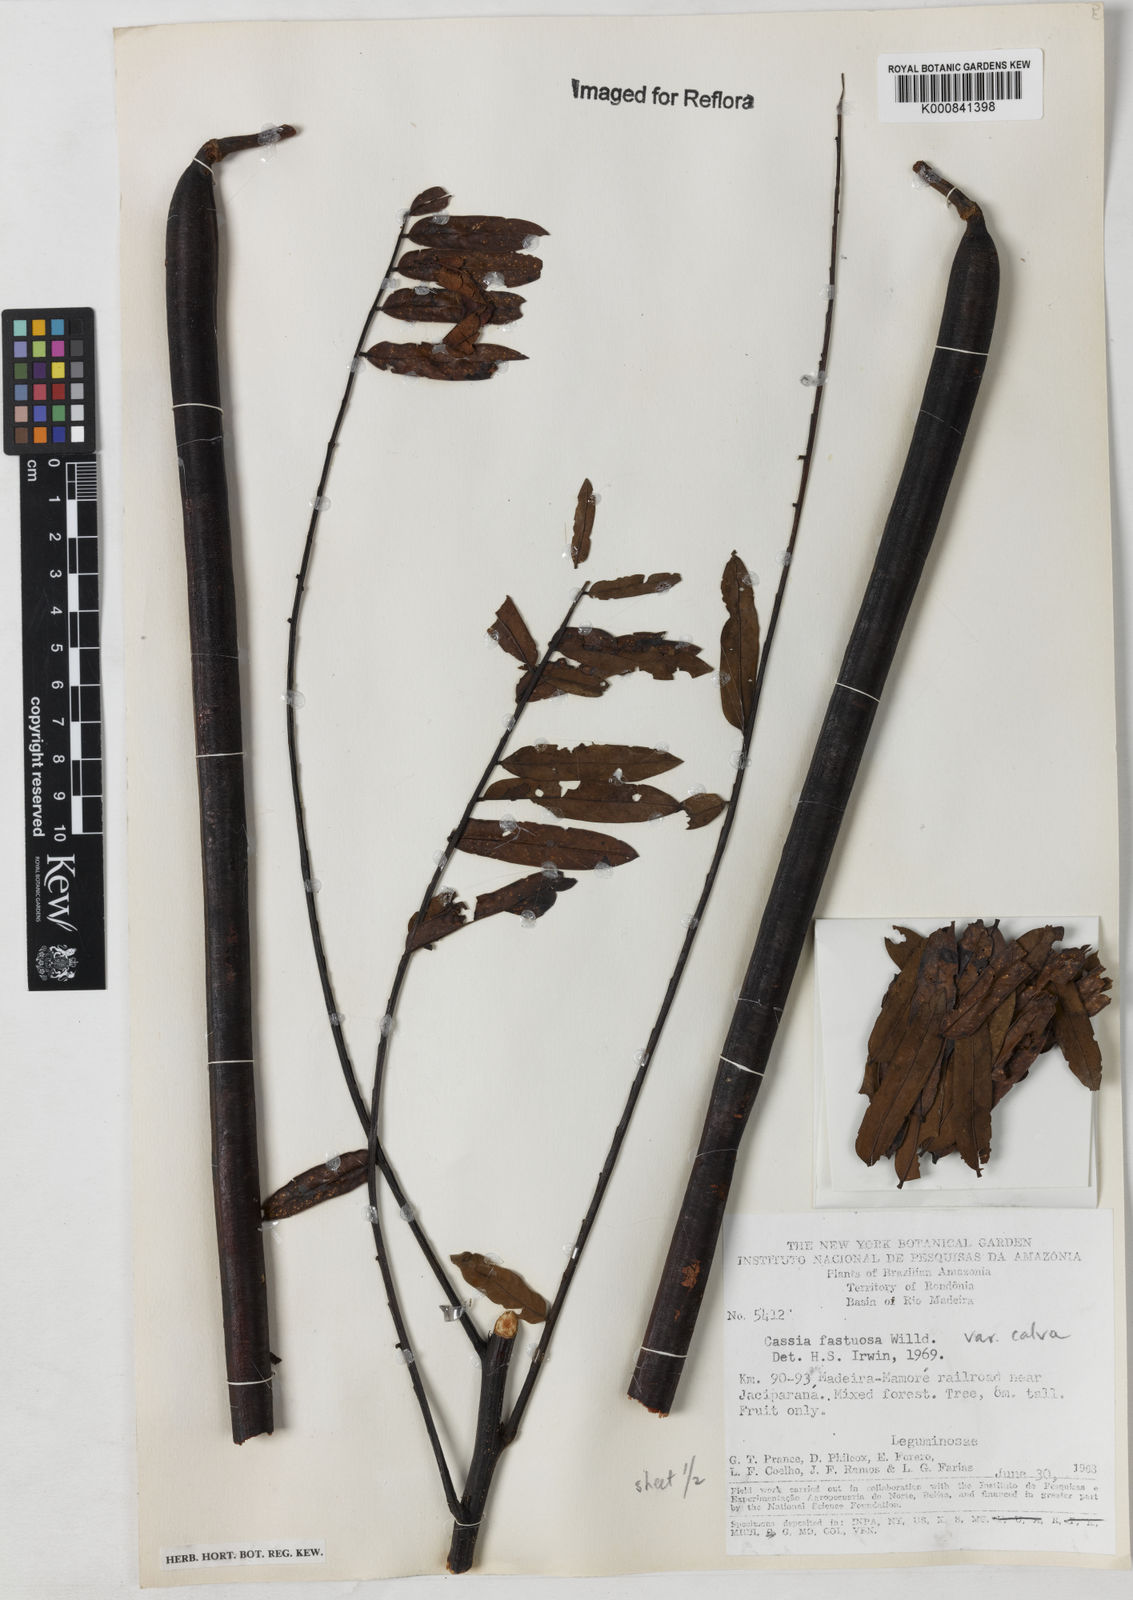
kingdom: Plantae
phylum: Tracheophyta
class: Magnoliopsida
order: Fabales
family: Fabaceae
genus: Cassia
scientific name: Cassia fastuosa
